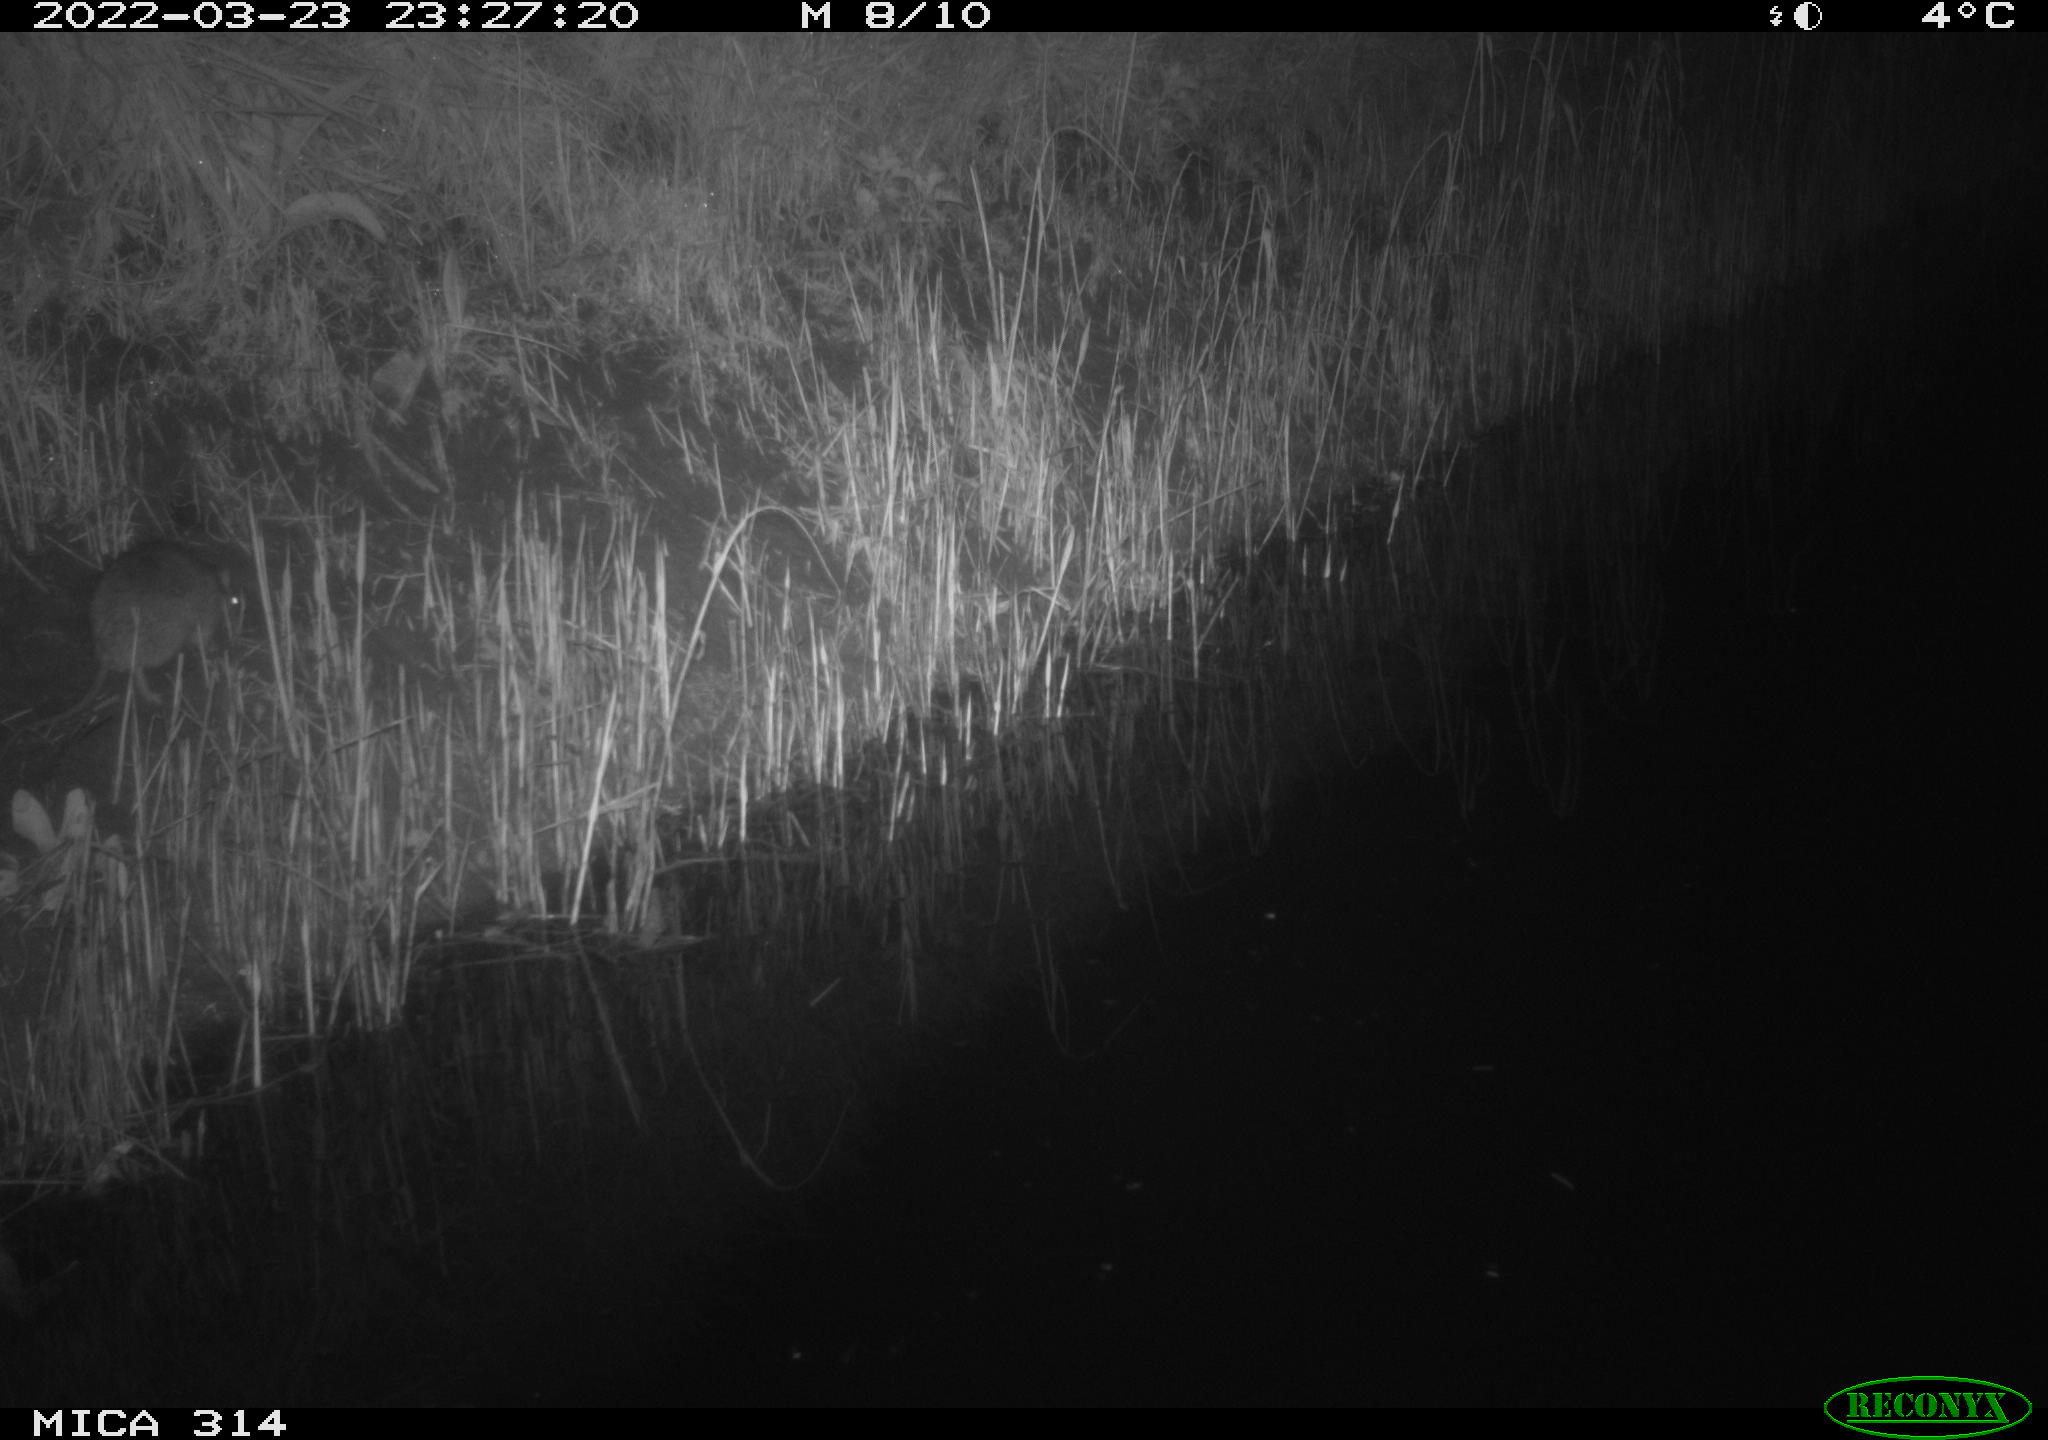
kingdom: Animalia
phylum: Chordata
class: Mammalia
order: Rodentia
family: Muridae
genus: Rattus
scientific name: Rattus norvegicus
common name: Brown rat
